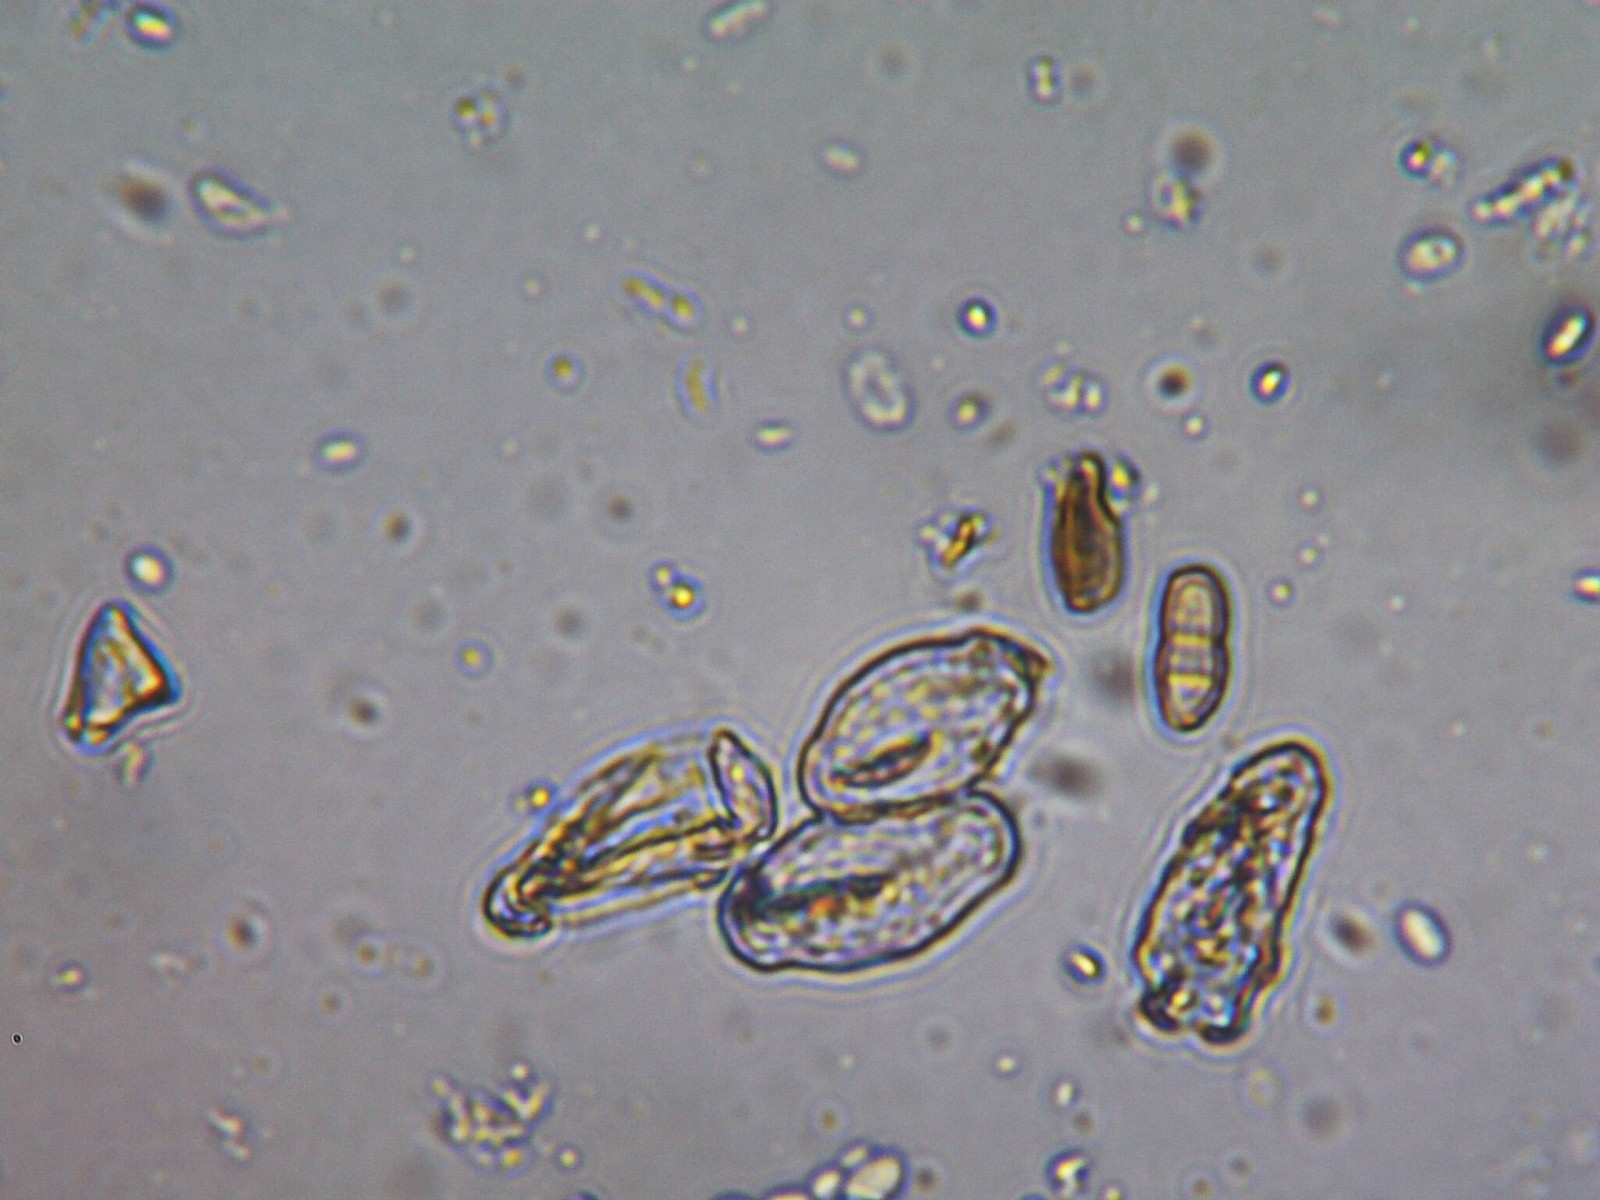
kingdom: Fungi
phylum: Ascomycota
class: Leotiomycetes
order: Helotiales
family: Erysiphaceae
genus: Podosphaera
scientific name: Podosphaera aphanis
